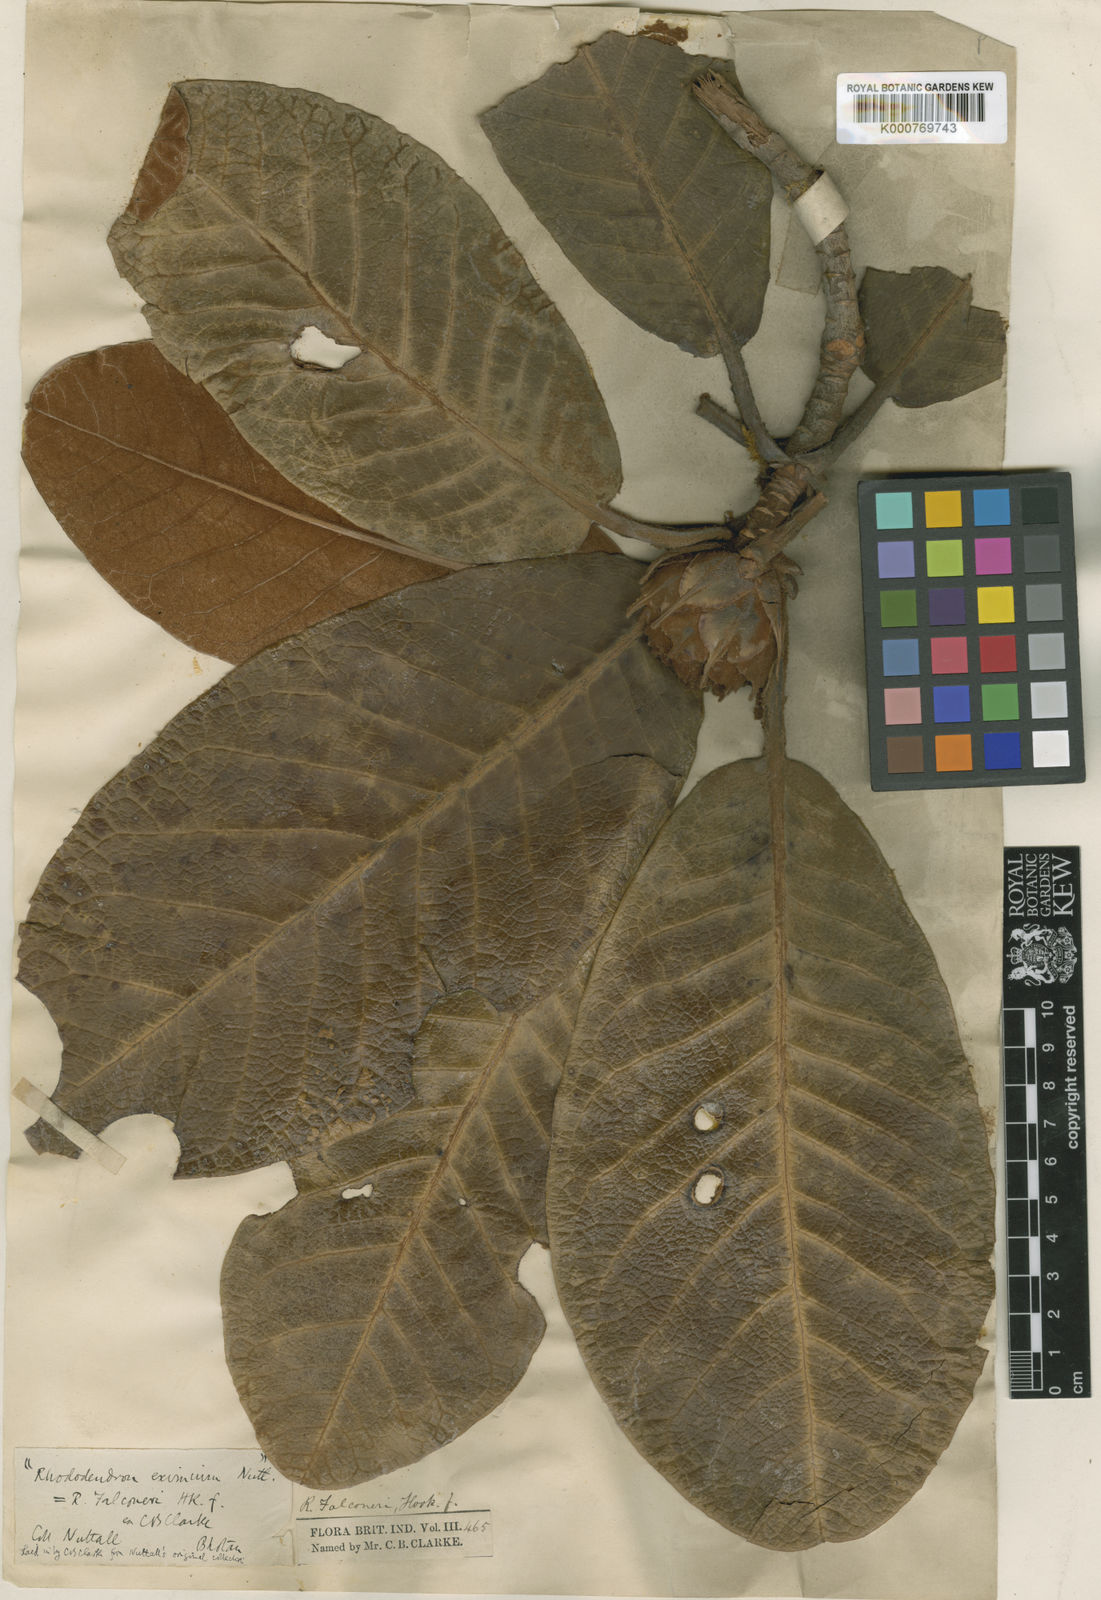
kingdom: Plantae
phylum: Tracheophyta
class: Magnoliopsida
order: Ericales
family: Ericaceae
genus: Rhododendron
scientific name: Rhododendron falconeri
